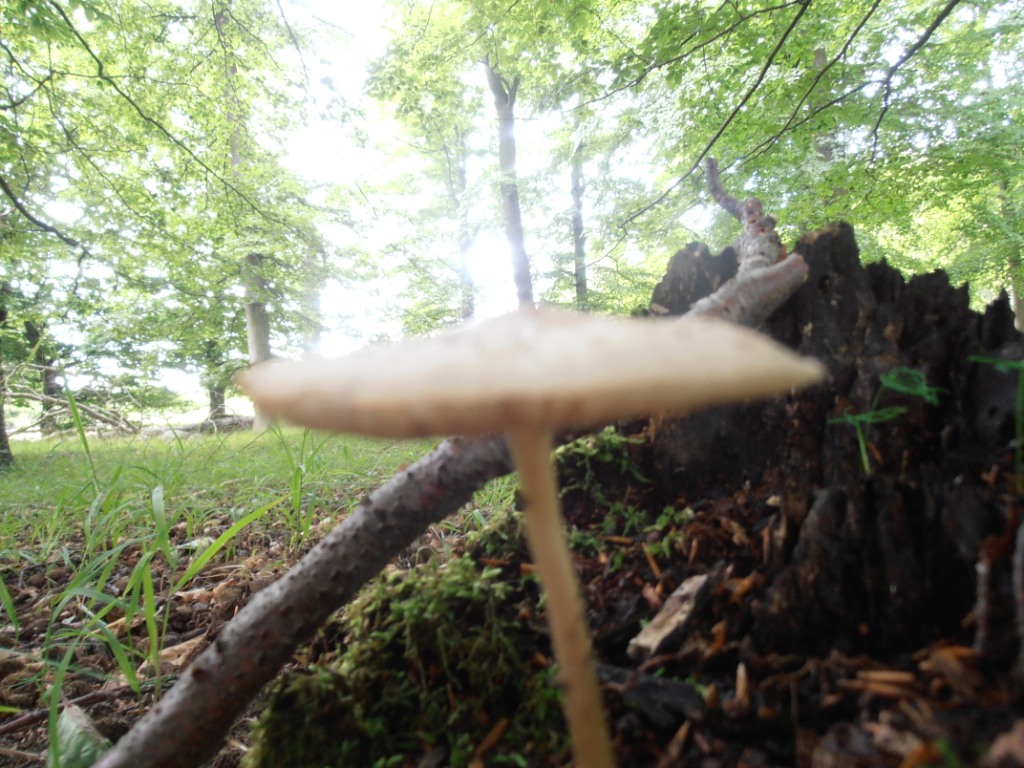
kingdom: Fungi
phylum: Basidiomycota
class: Agaricomycetes
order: Agaricales
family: Physalacriaceae
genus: Hymenopellis
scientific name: Hymenopellis radicata
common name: almindelig pælerodshat
